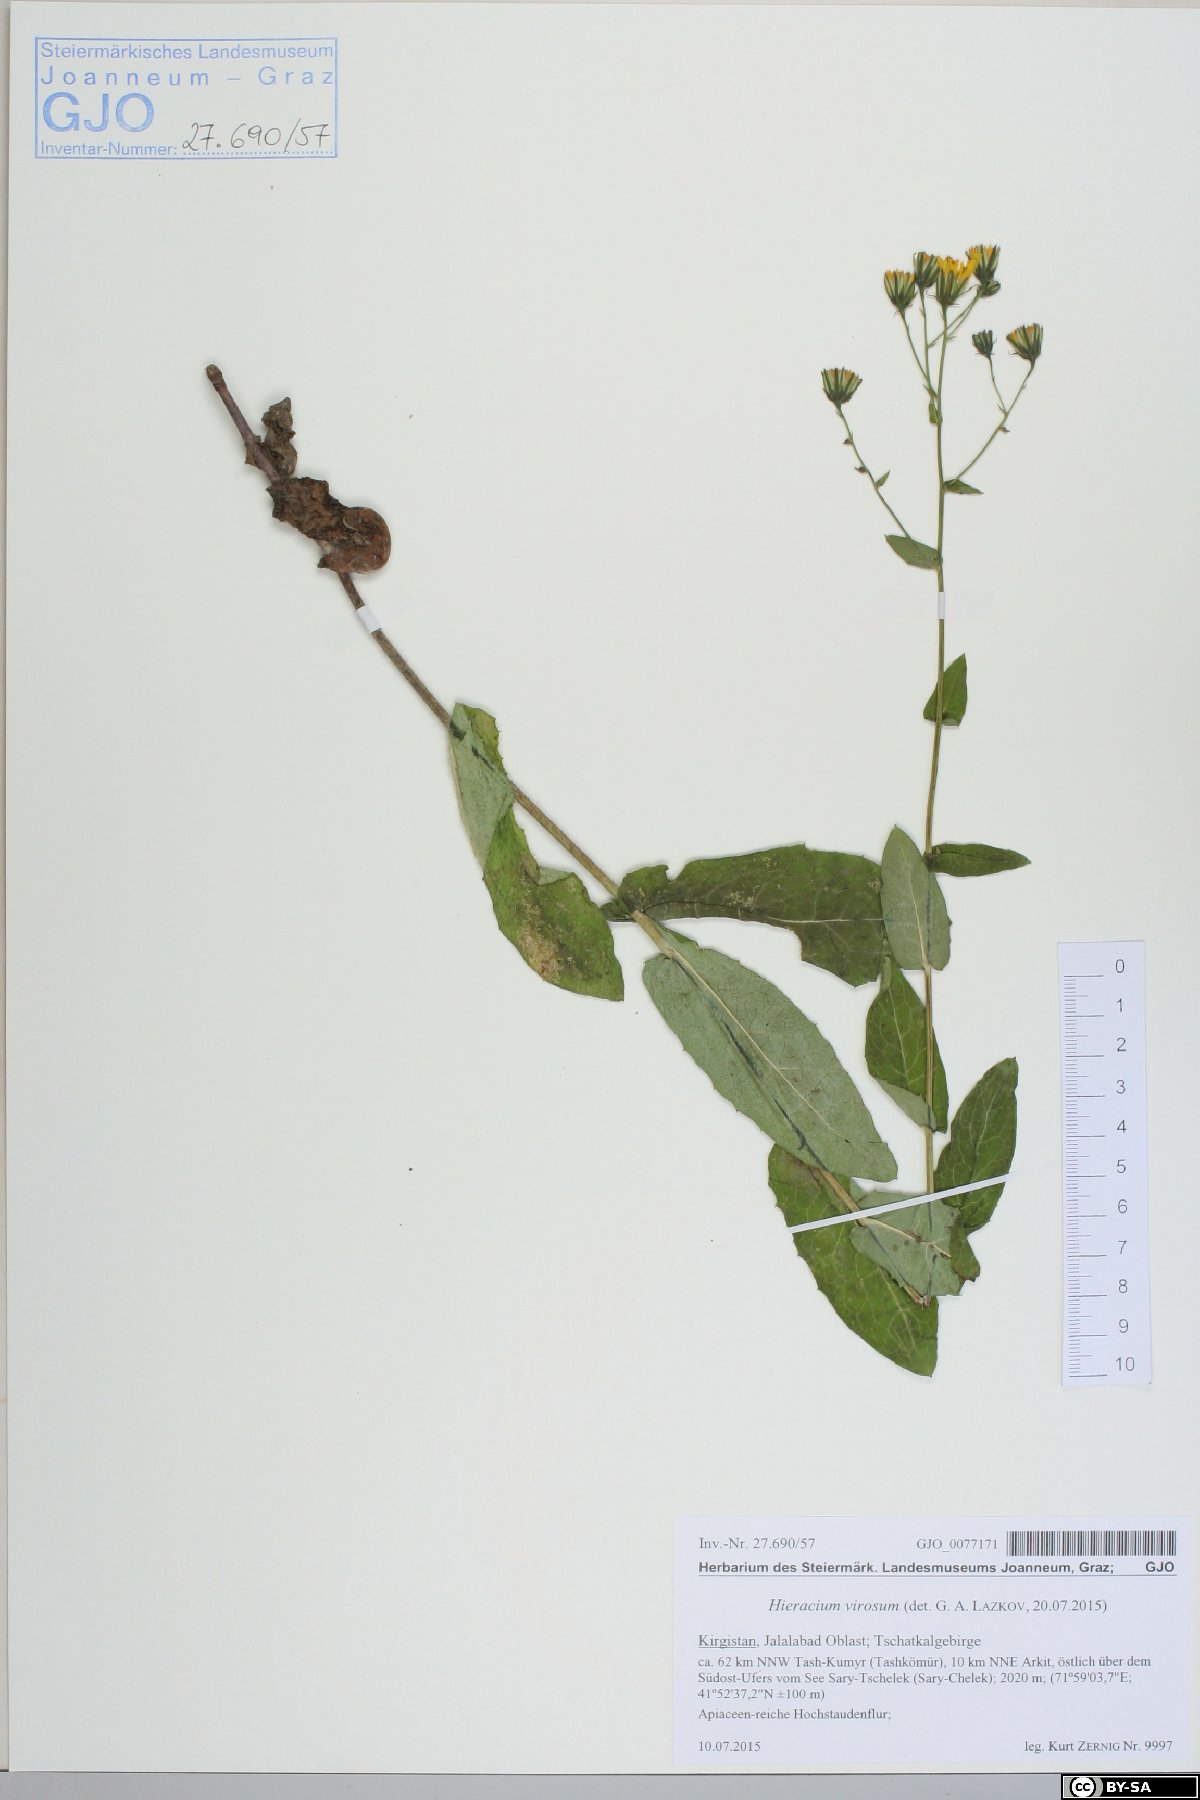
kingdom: Plantae
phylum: Tracheophyta
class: Magnoliopsida
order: Asterales
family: Asteraceae
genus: Hieracium
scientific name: Hieracium virosum
